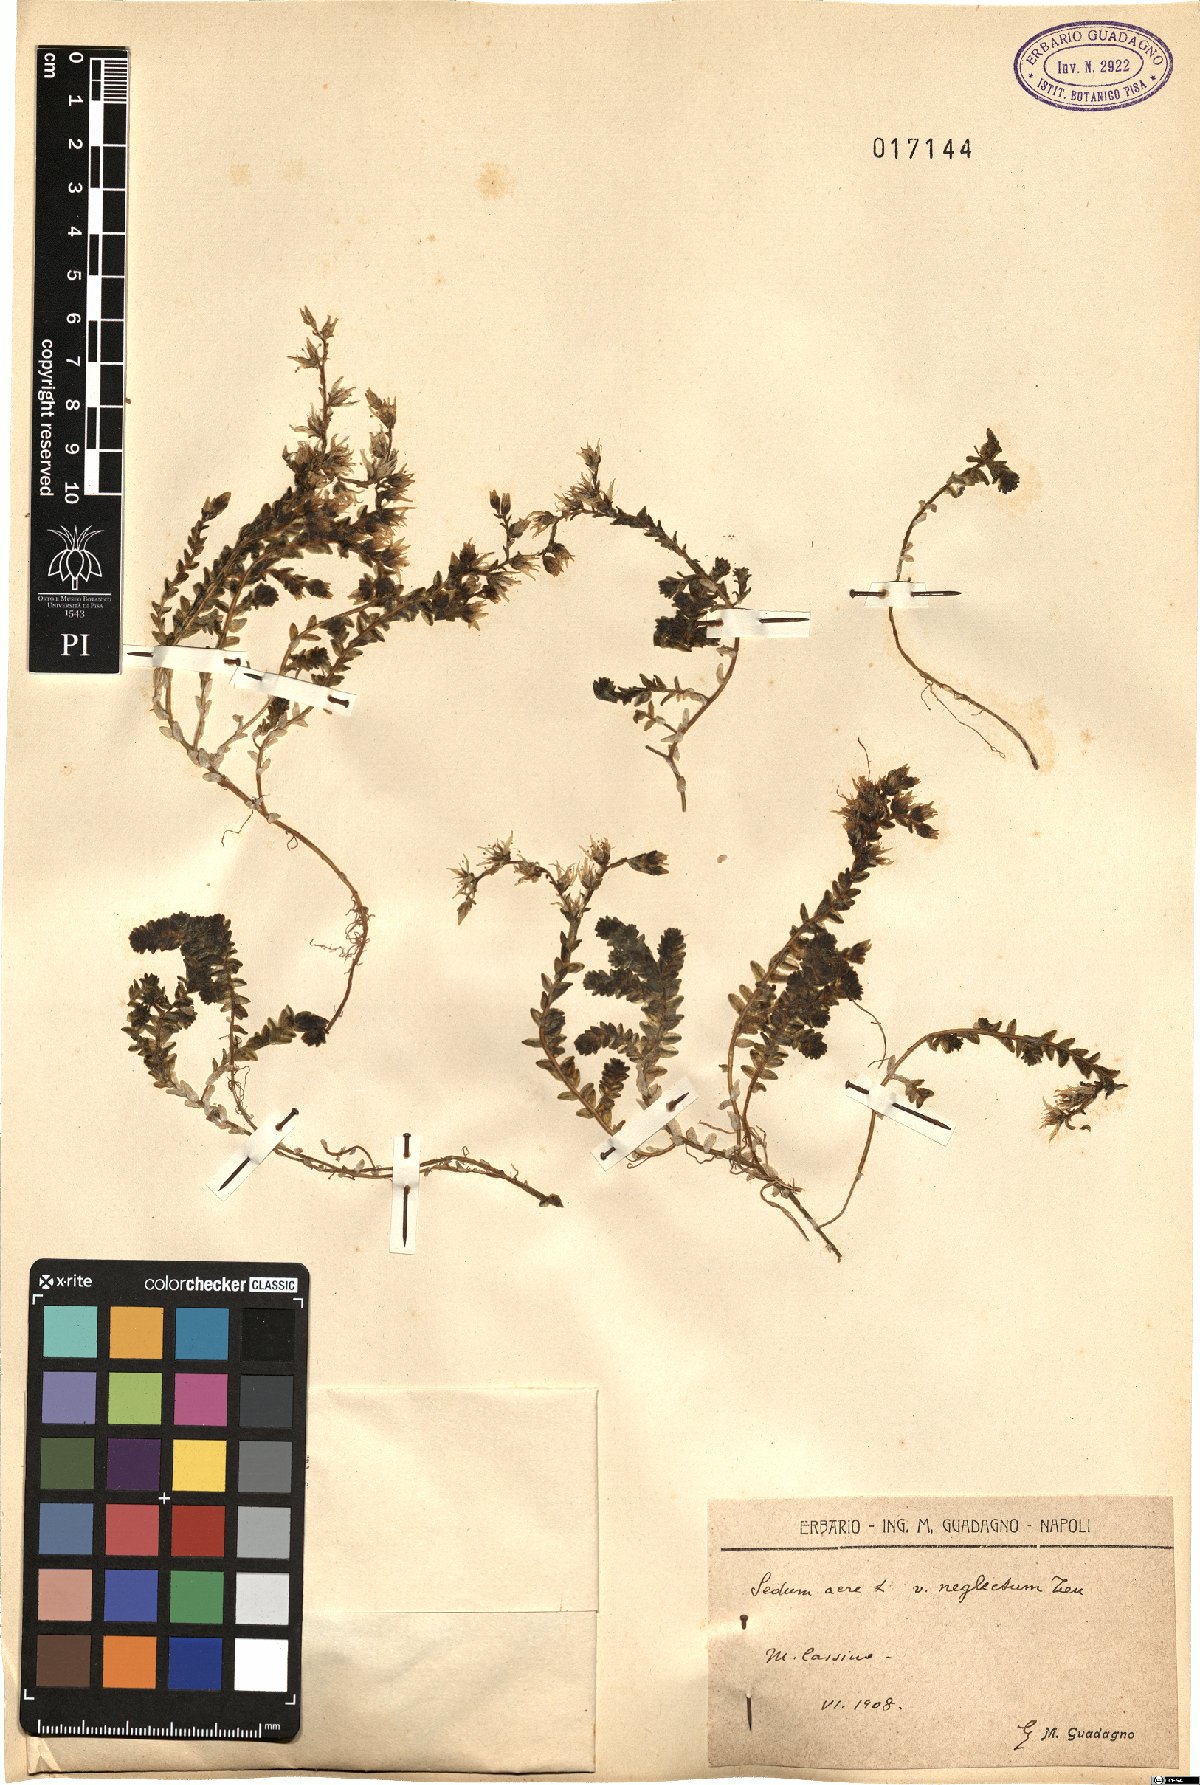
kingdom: Plantae
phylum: Tracheophyta
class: Magnoliopsida
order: Saxifragales
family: Crassulaceae
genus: Sedum
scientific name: Sedum acre
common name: Biting stonecrop
